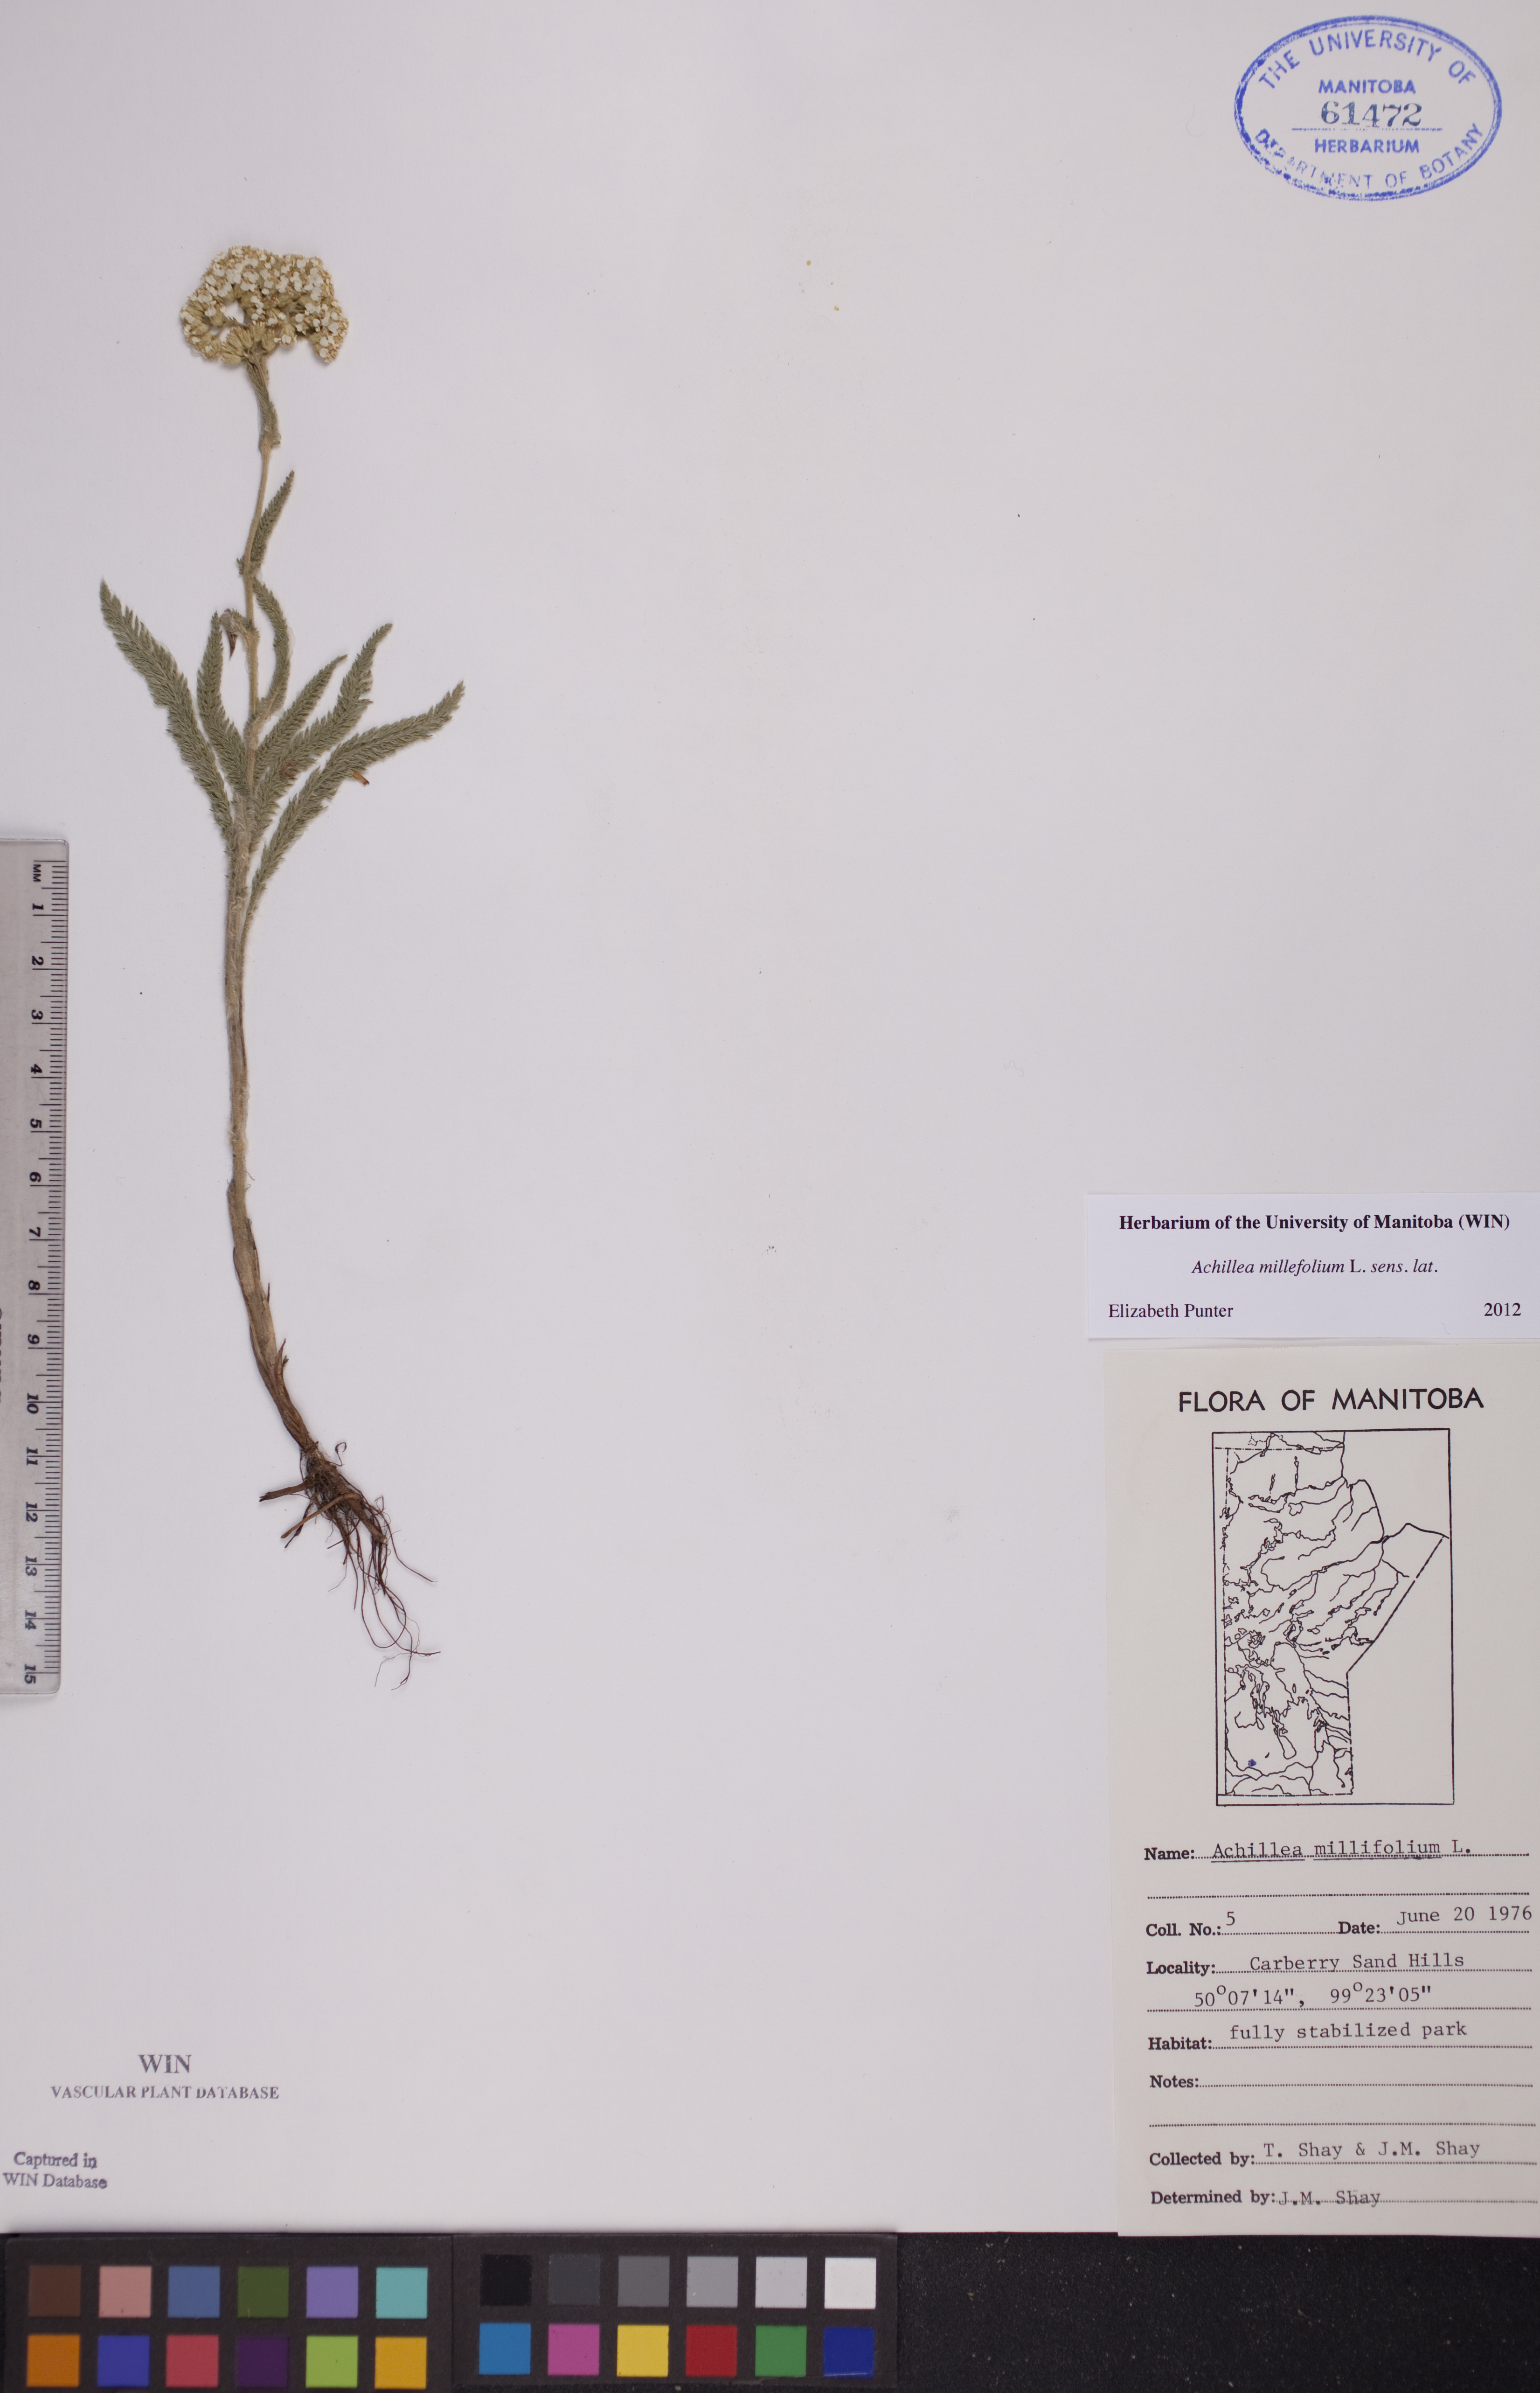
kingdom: Plantae
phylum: Tracheophyta
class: Magnoliopsida
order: Asterales
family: Asteraceae
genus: Achillea
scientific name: Achillea millefolium
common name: Yarrow
